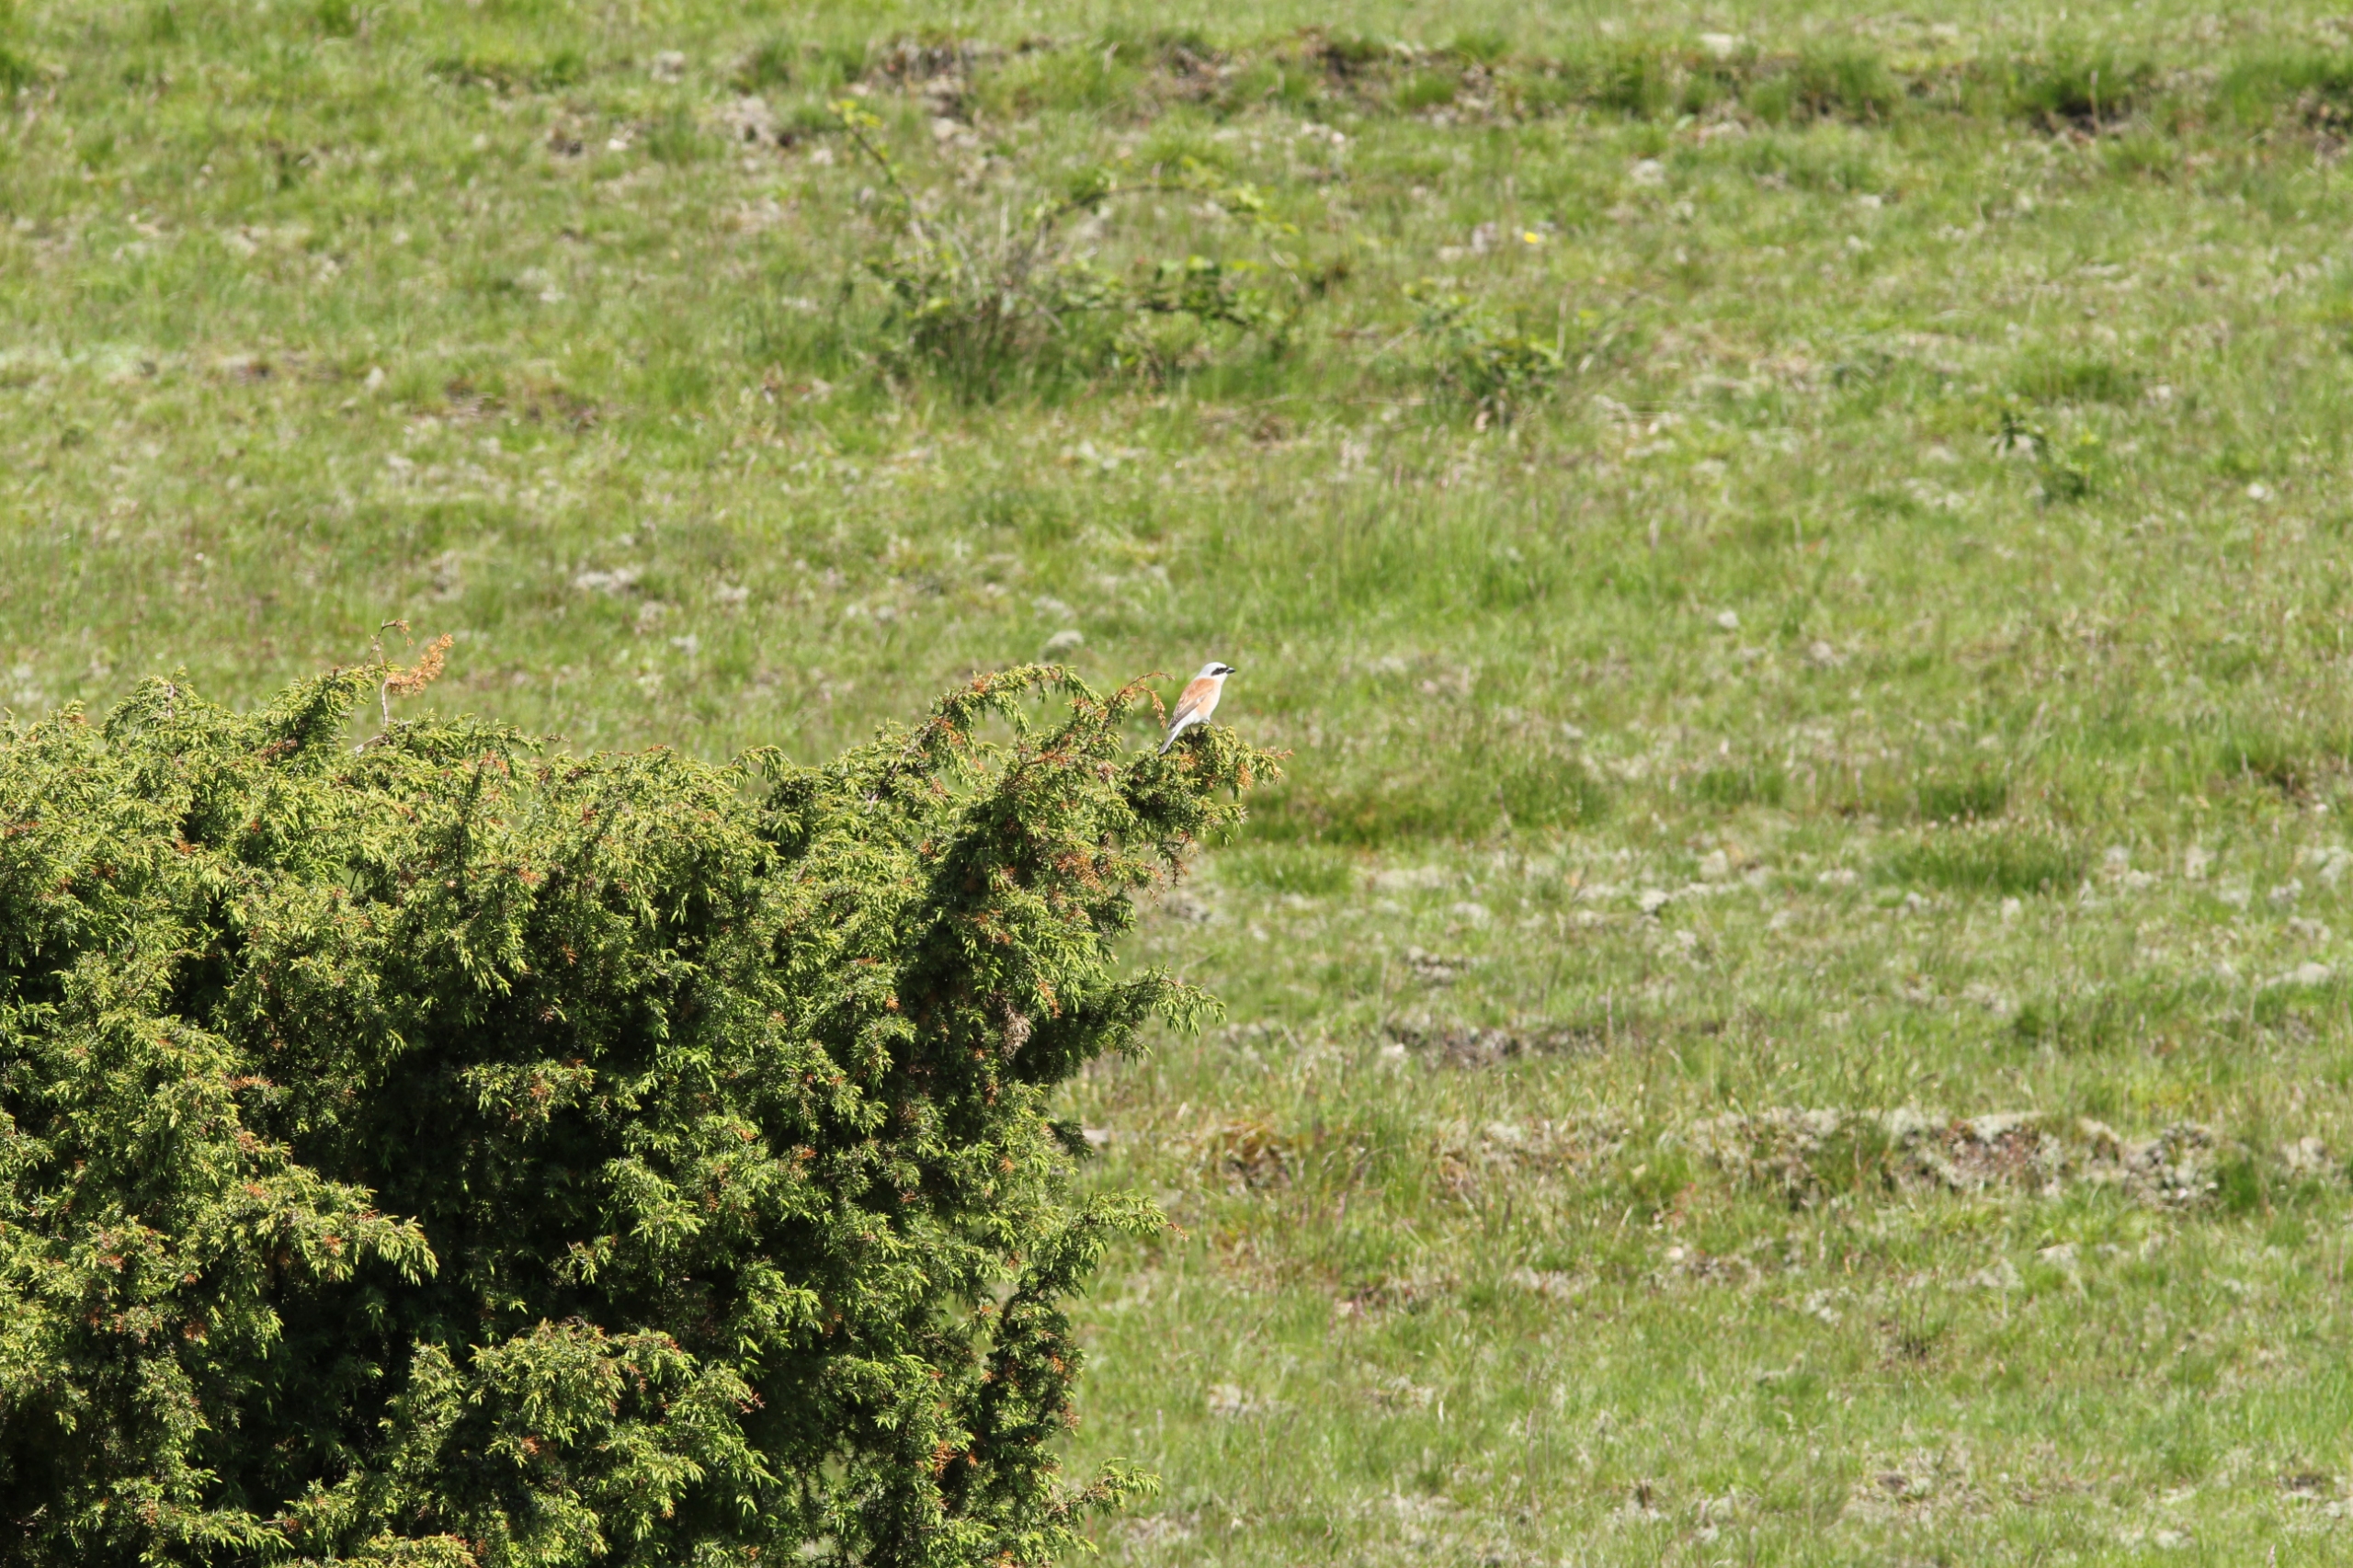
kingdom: Animalia
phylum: Chordata
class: Aves
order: Passeriformes
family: Laniidae
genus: Lanius
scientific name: Lanius collurio
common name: Rødrygget tornskade
